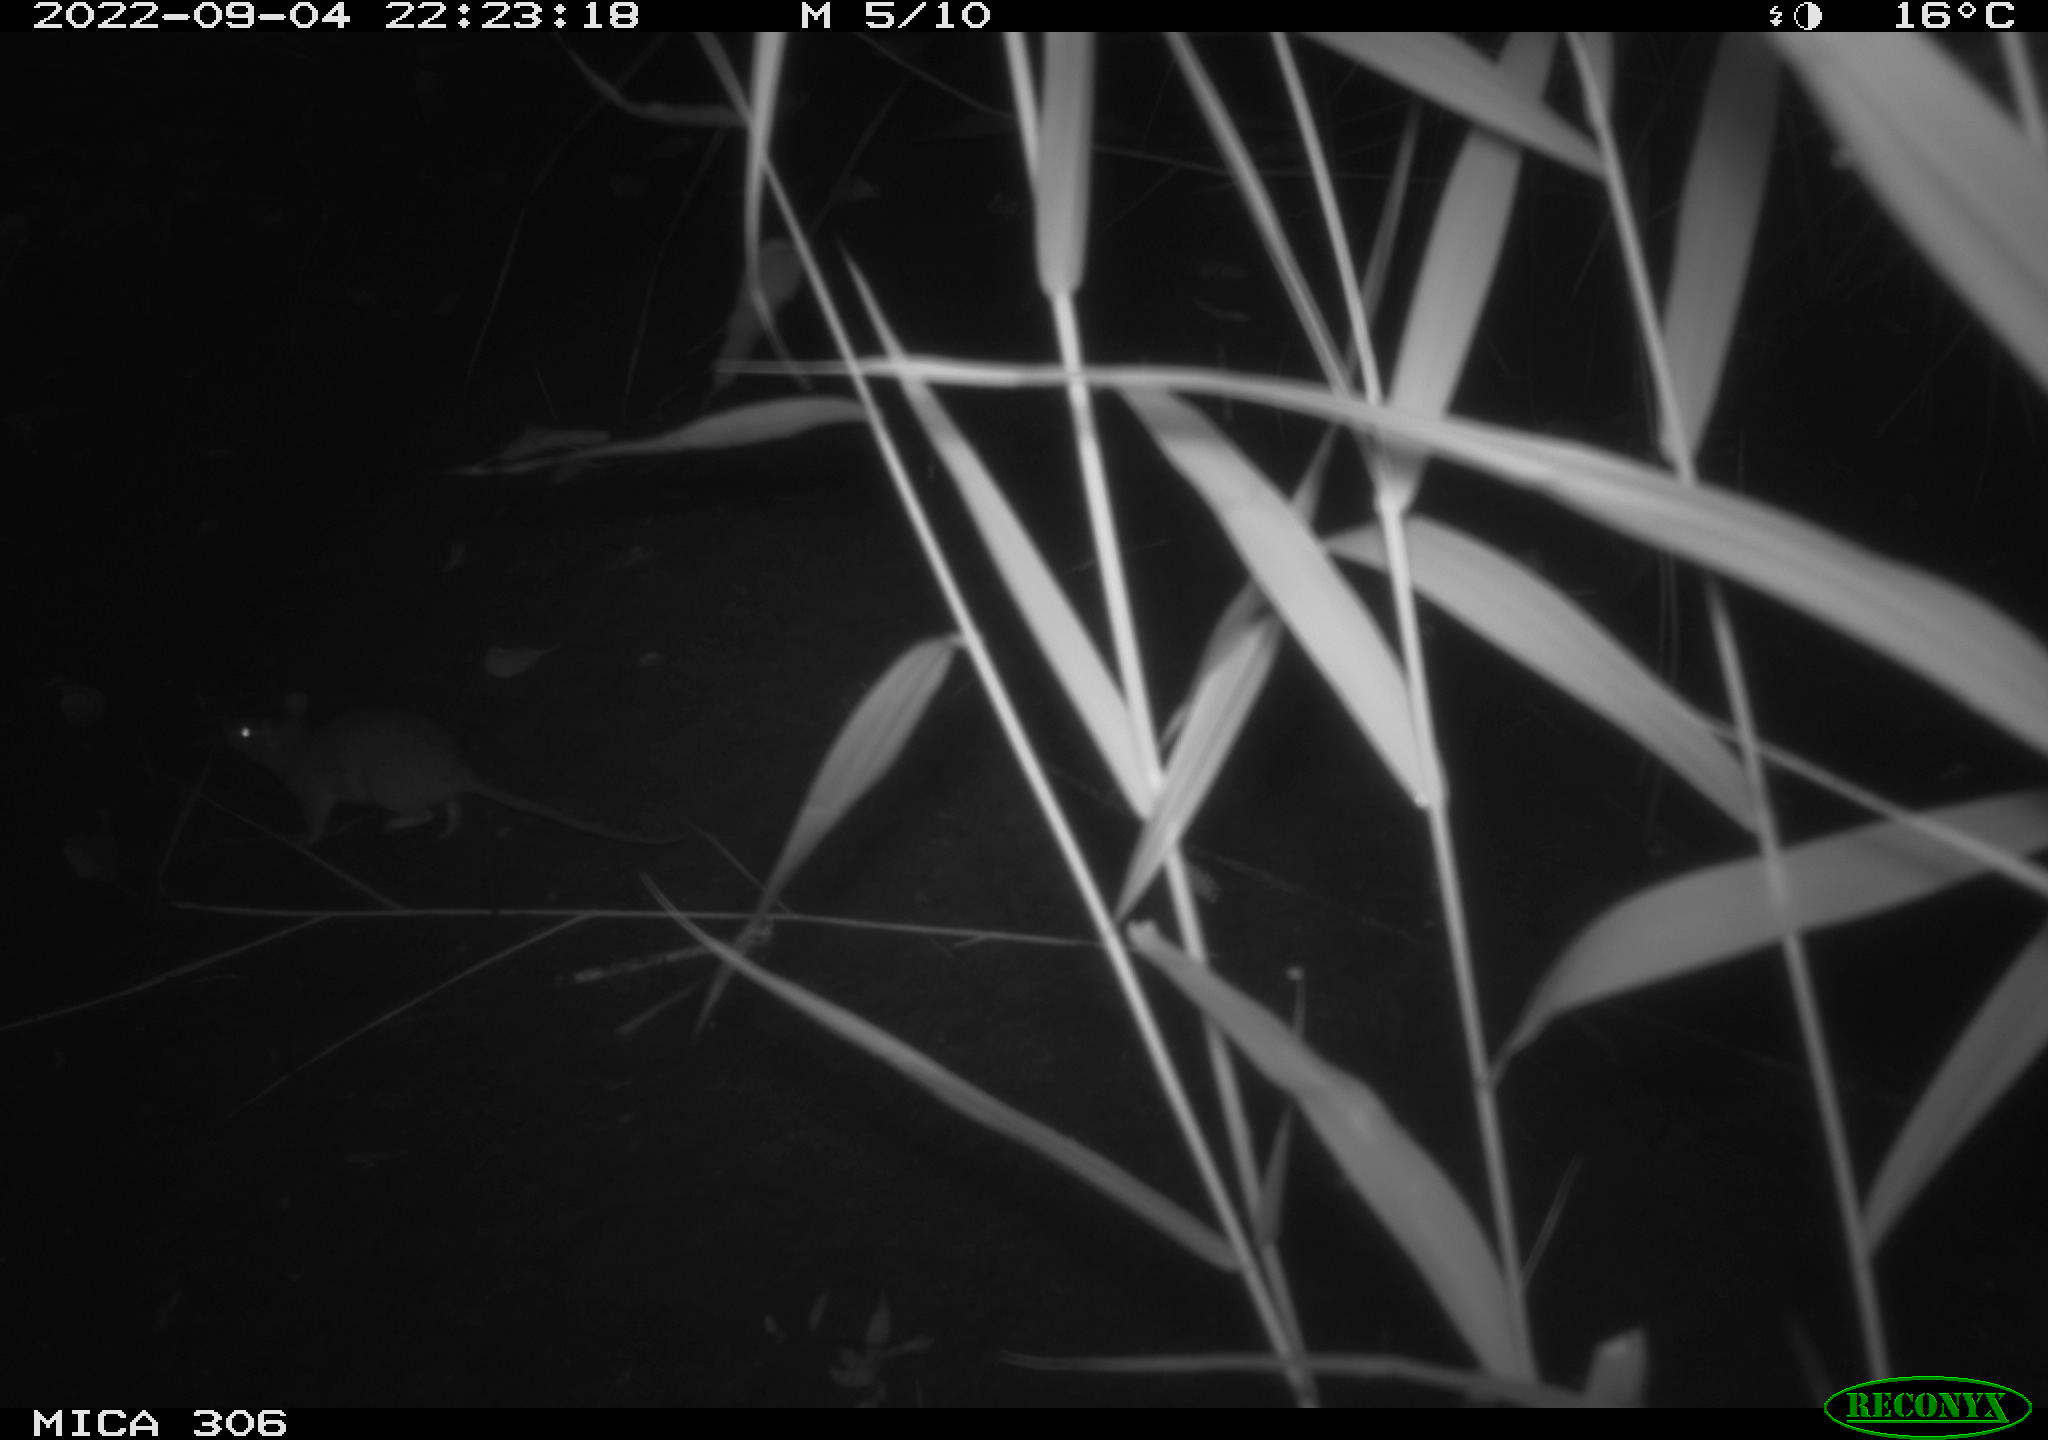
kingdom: Animalia
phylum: Chordata
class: Mammalia
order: Rodentia
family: Muridae
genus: Rattus
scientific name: Rattus norvegicus
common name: Brown rat
